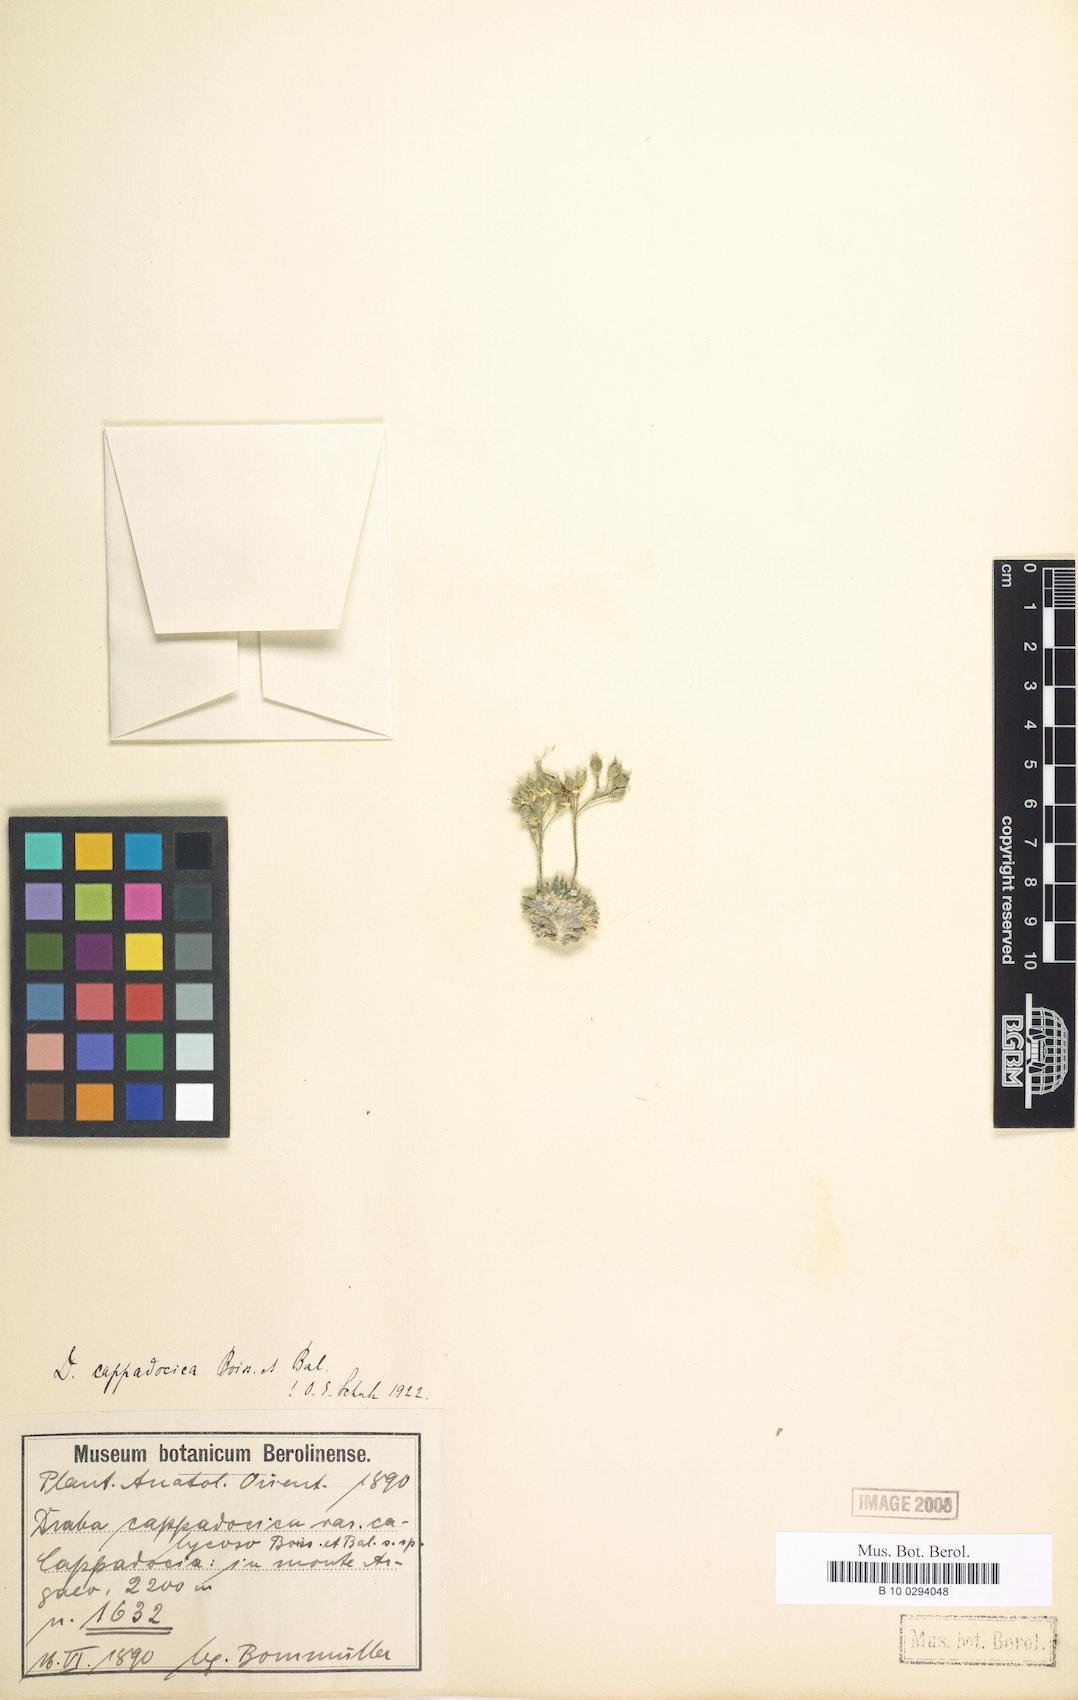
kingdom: Plantae
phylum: Tracheophyta
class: Magnoliopsida
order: Brassicales
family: Brassicaceae
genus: Draba
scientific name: Draba cappadocica
